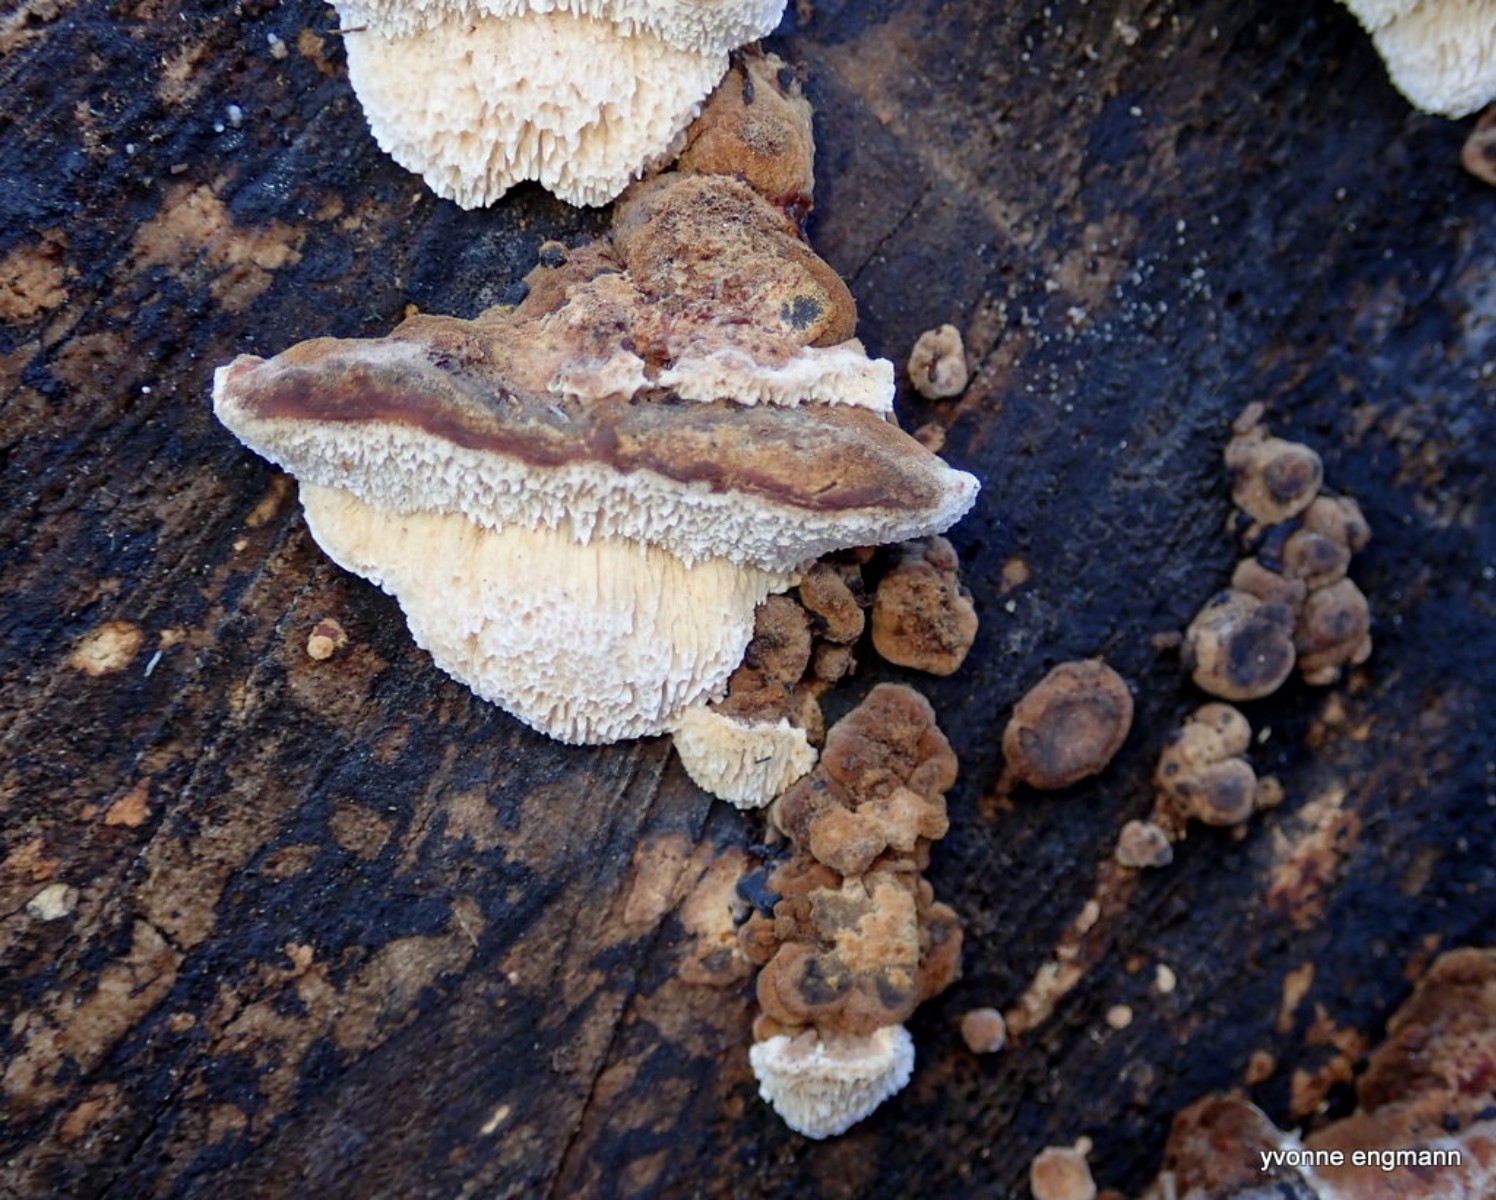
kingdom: Fungi
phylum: Basidiomycota
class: Agaricomycetes
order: Polyporales
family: Phanerochaetaceae
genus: Bjerkandera
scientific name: Bjerkandera fumosa
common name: grågul sodporesvamp
